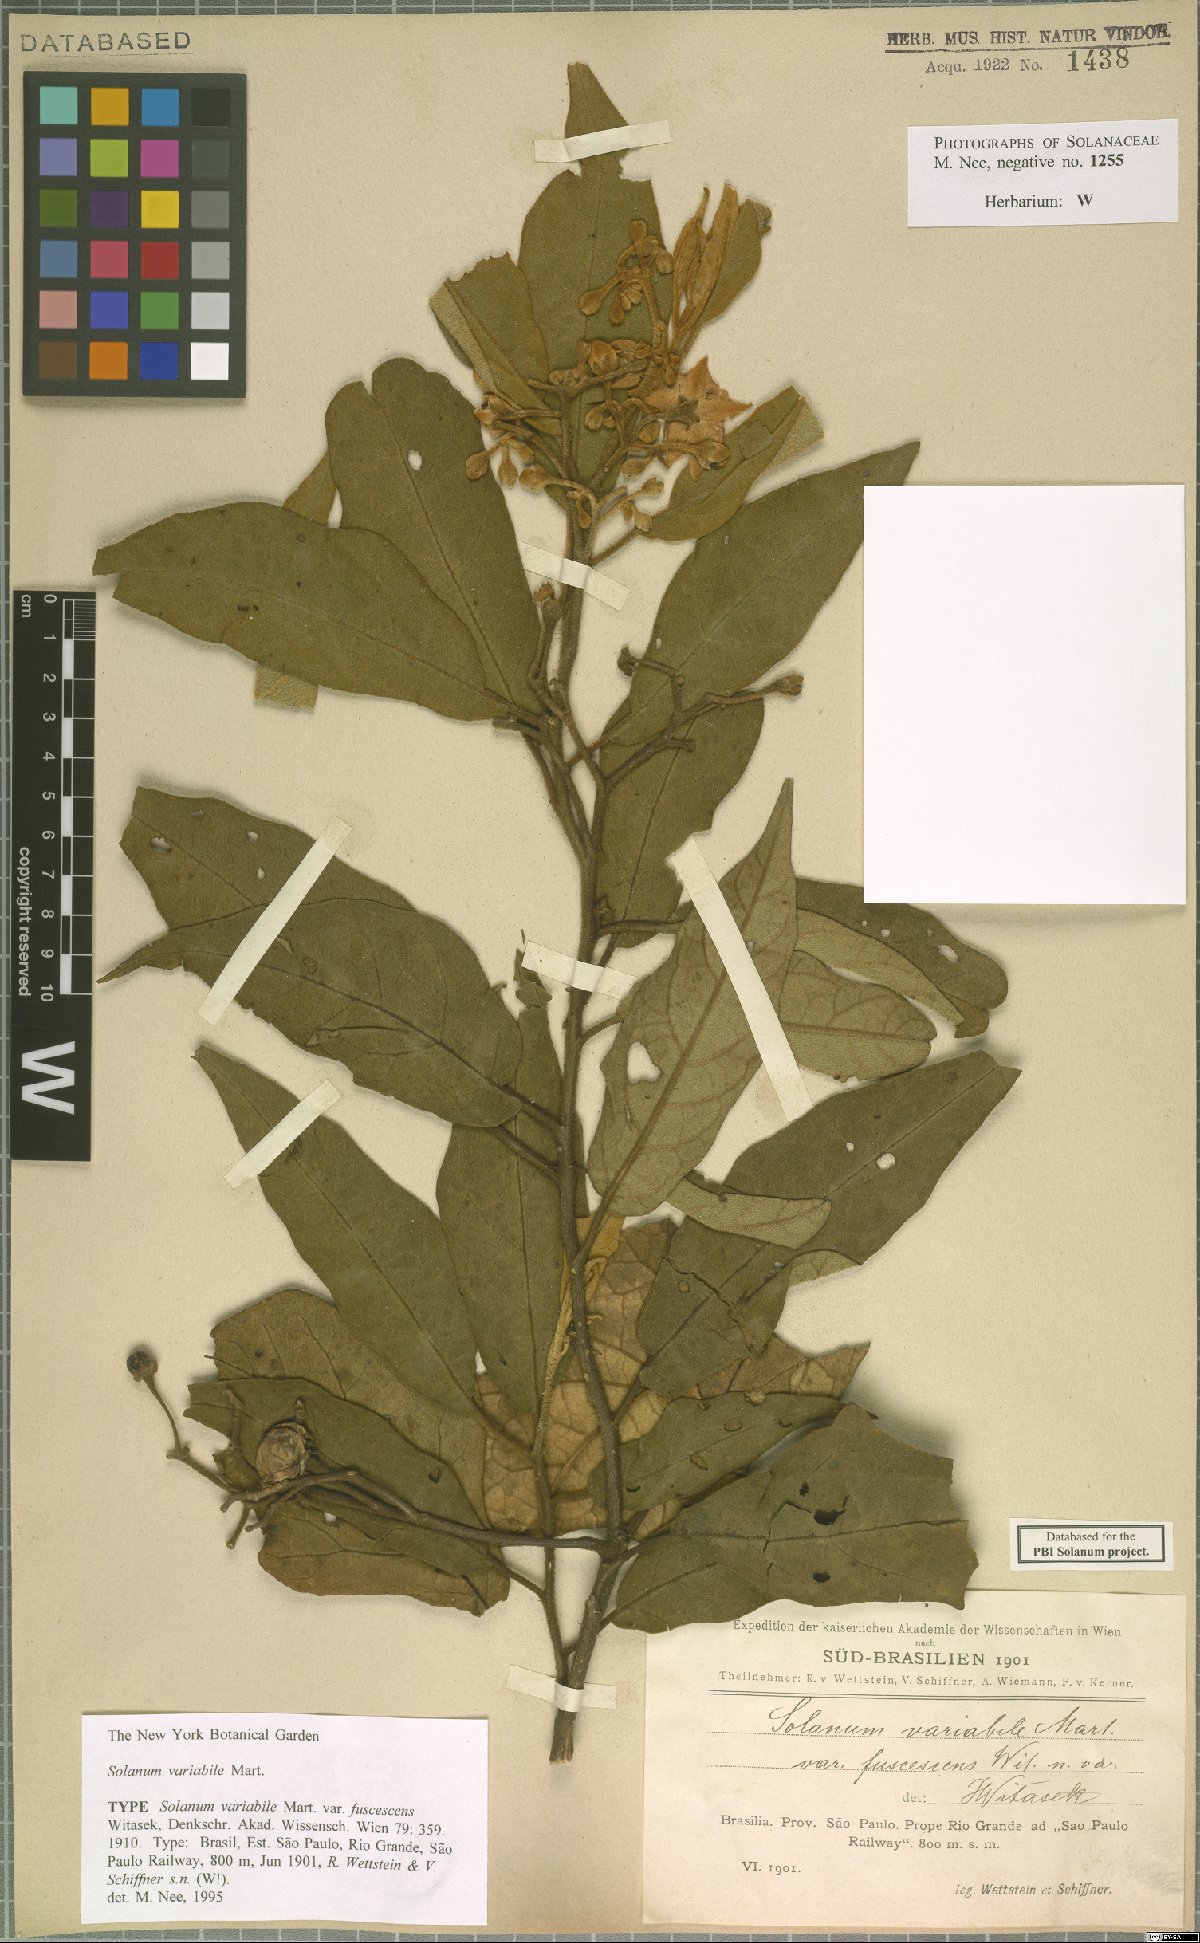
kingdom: Plantae
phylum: Tracheophyta
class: Magnoliopsida
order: Solanales
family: Solanaceae
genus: Solanum
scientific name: Solanum variabile
